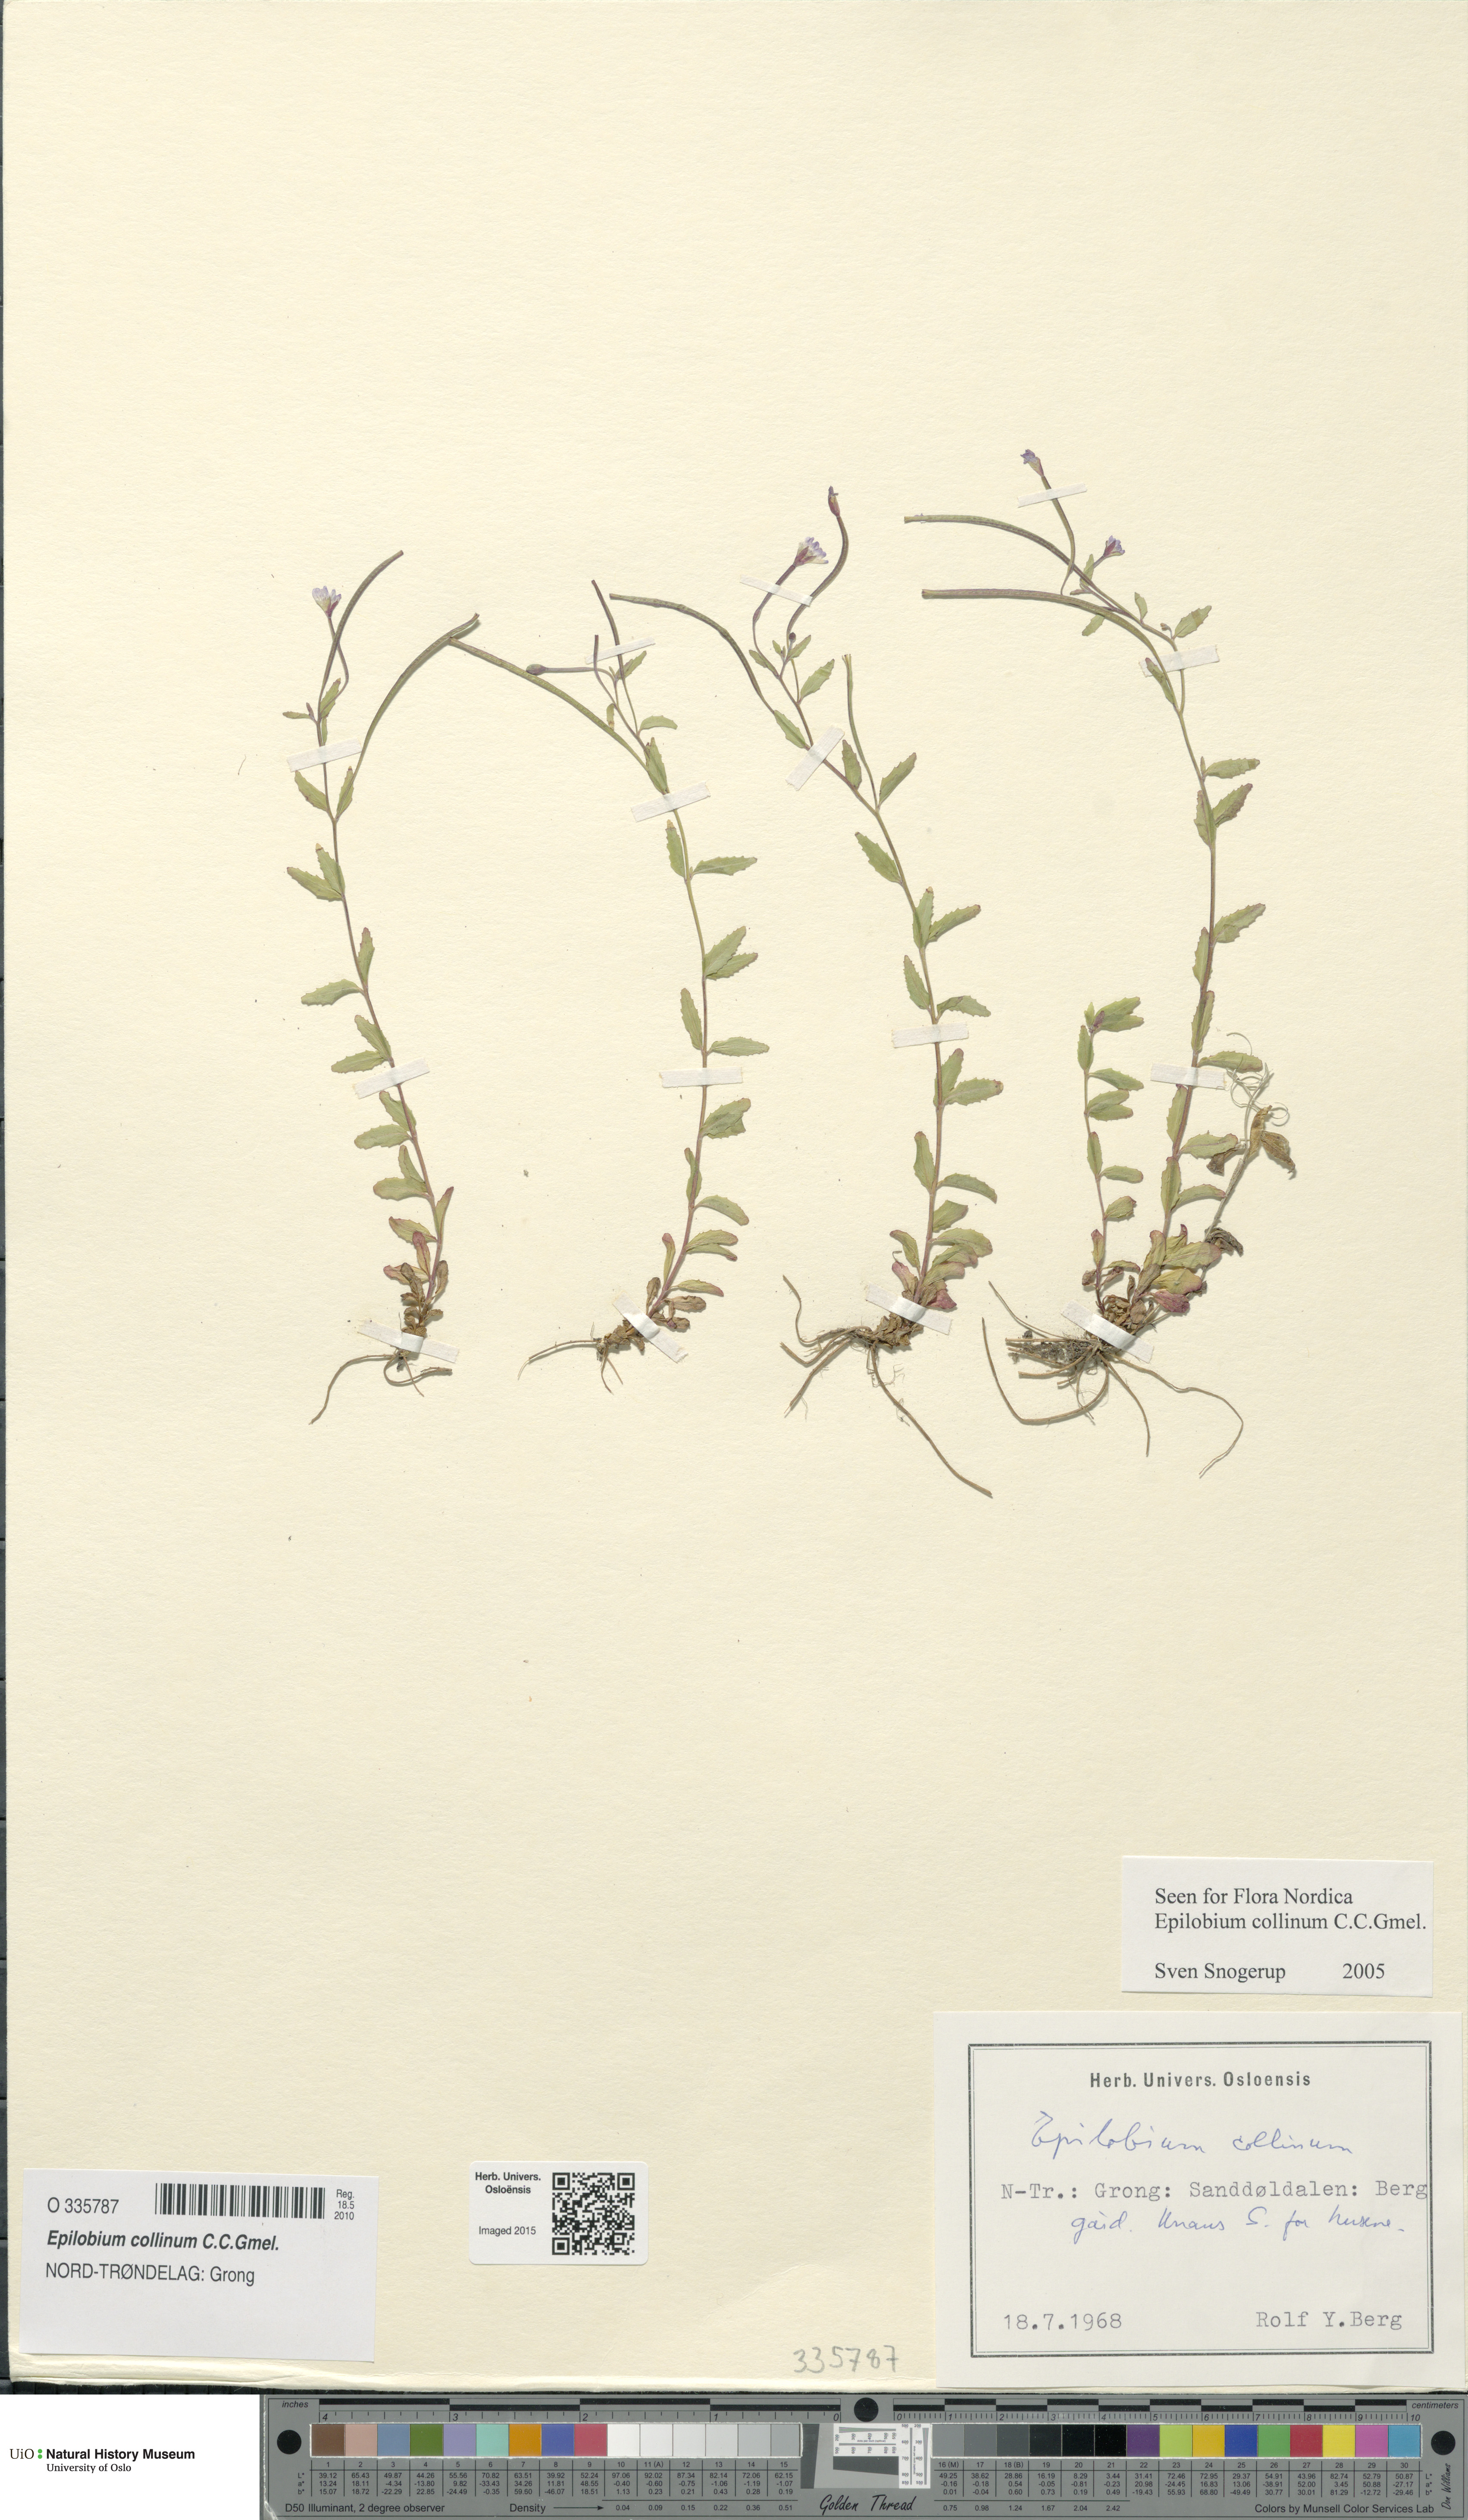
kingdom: Plantae
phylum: Tracheophyta
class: Magnoliopsida
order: Myrtales
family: Onagraceae
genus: Epilobium
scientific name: Epilobium collinum
